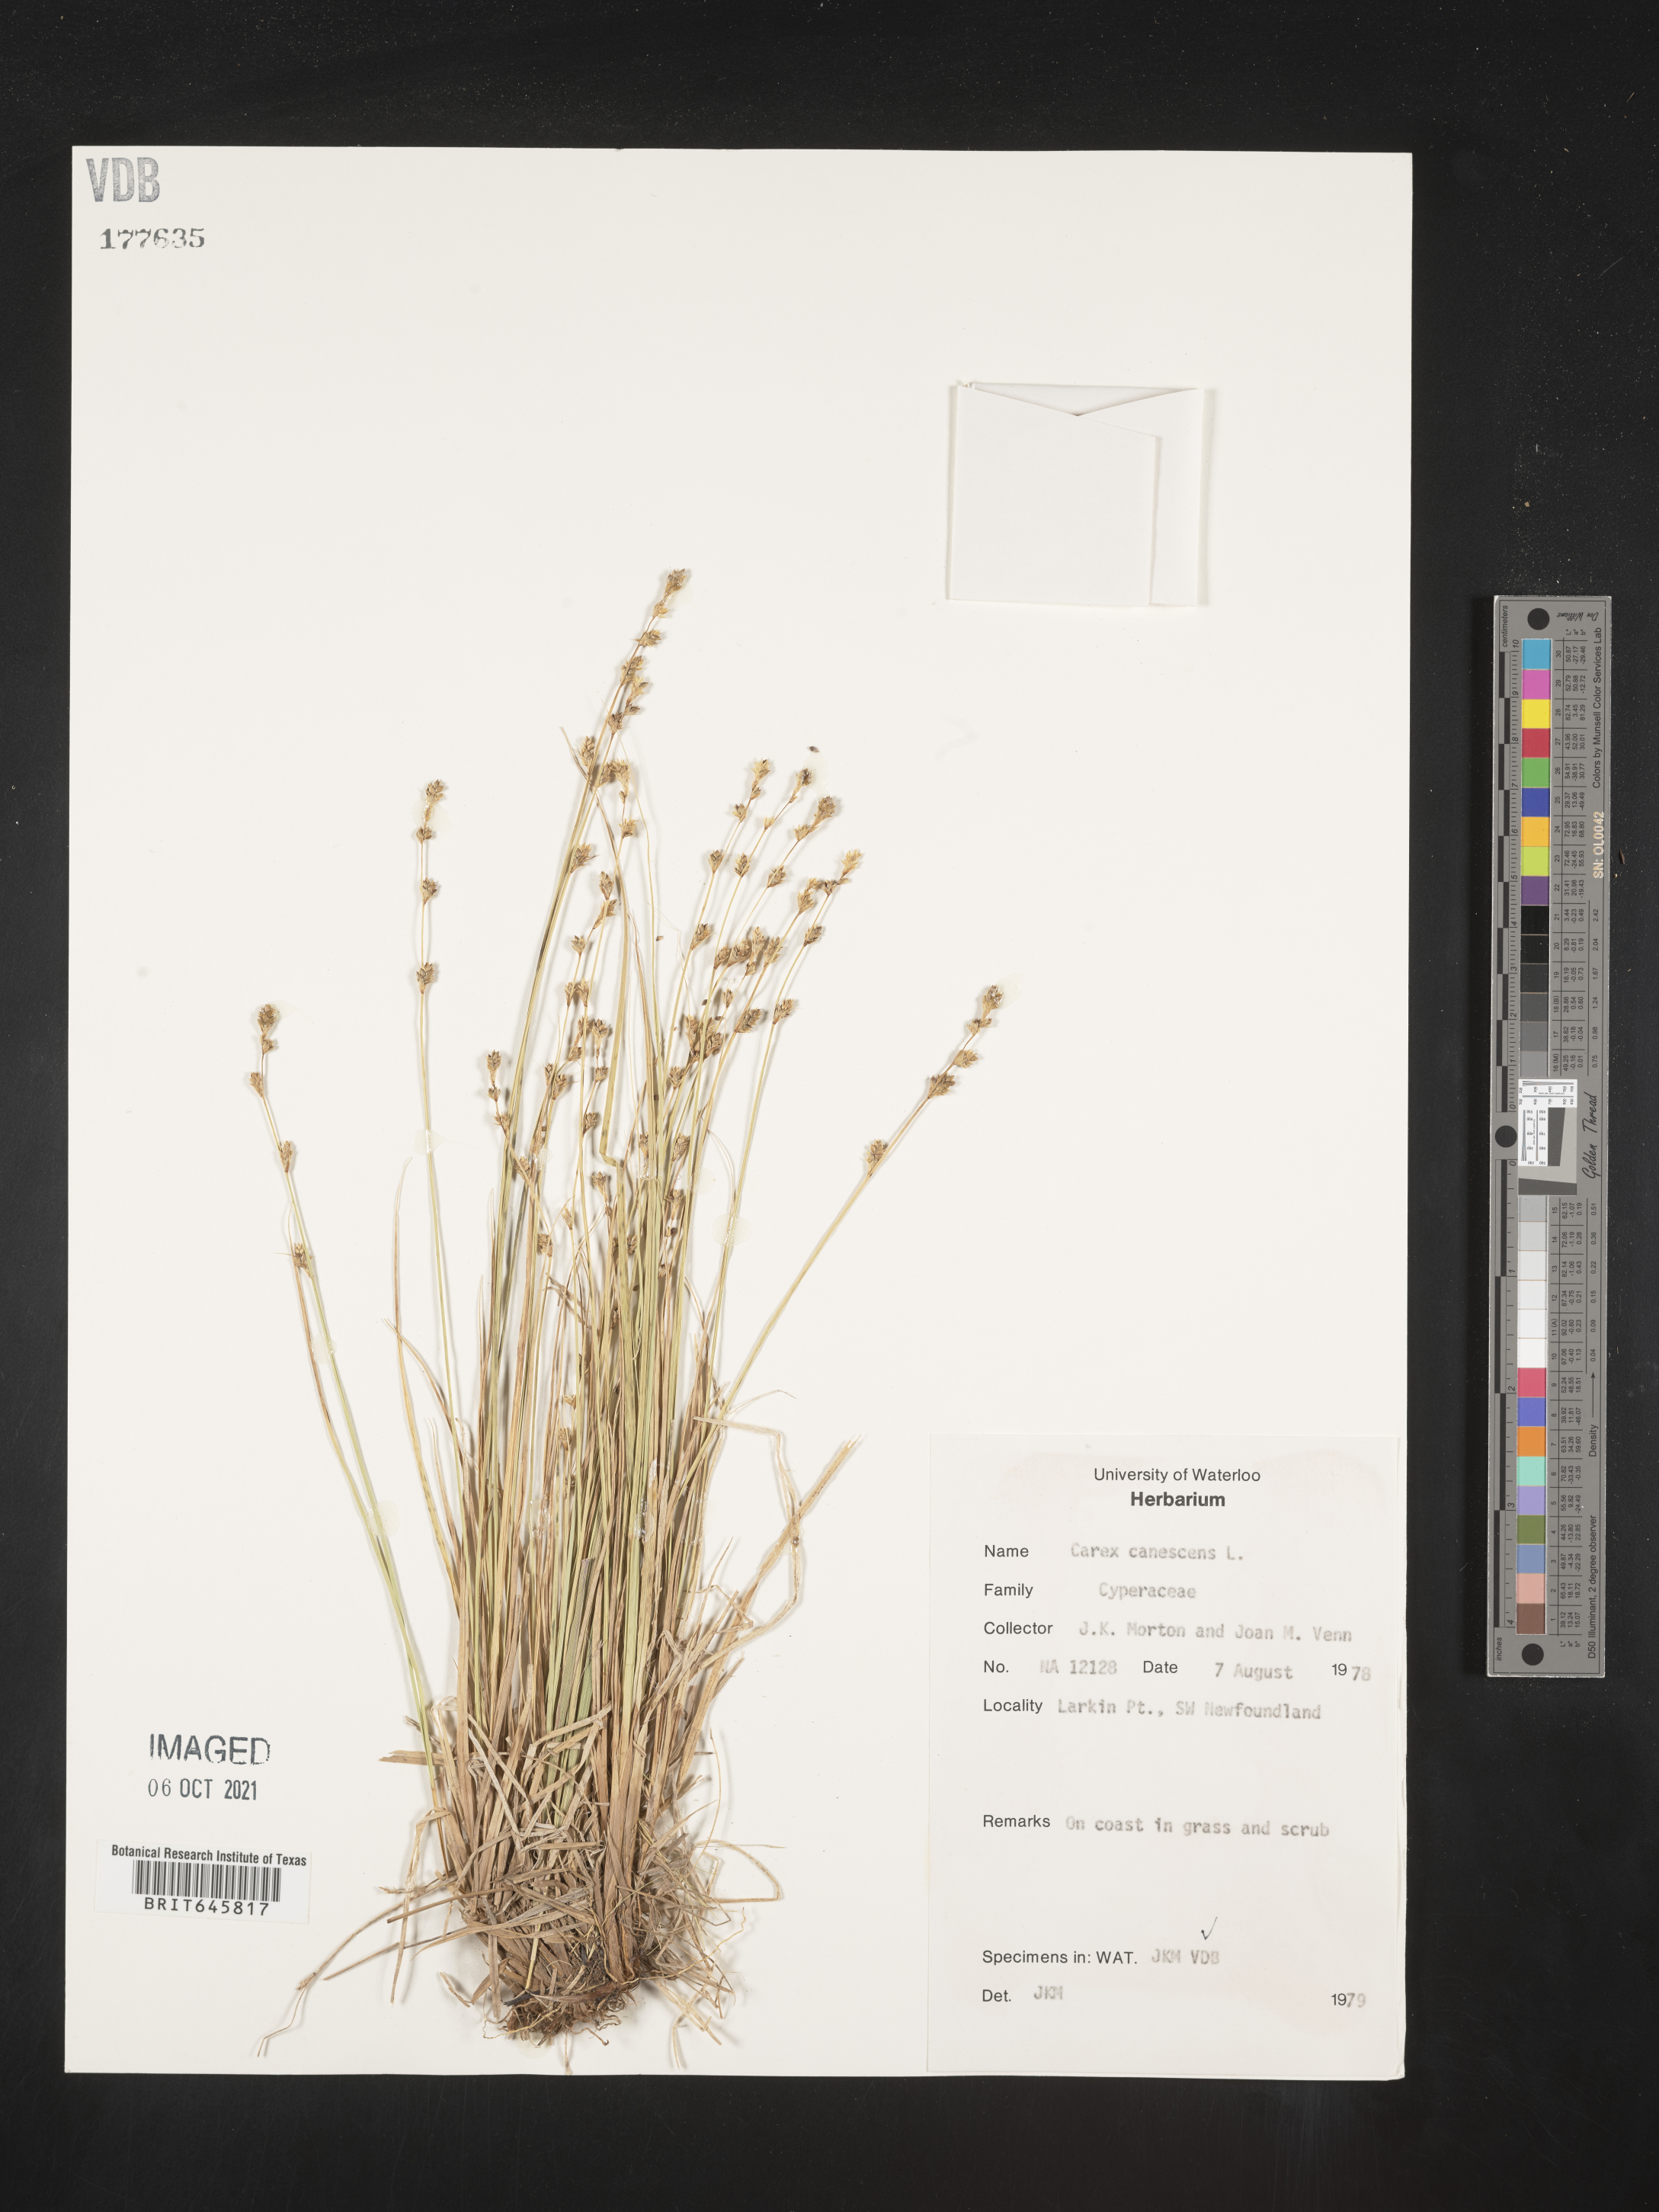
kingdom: Plantae
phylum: Tracheophyta
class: Liliopsida
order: Poales
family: Cyperaceae
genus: Carex
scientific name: Carex canescens
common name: White sedge
